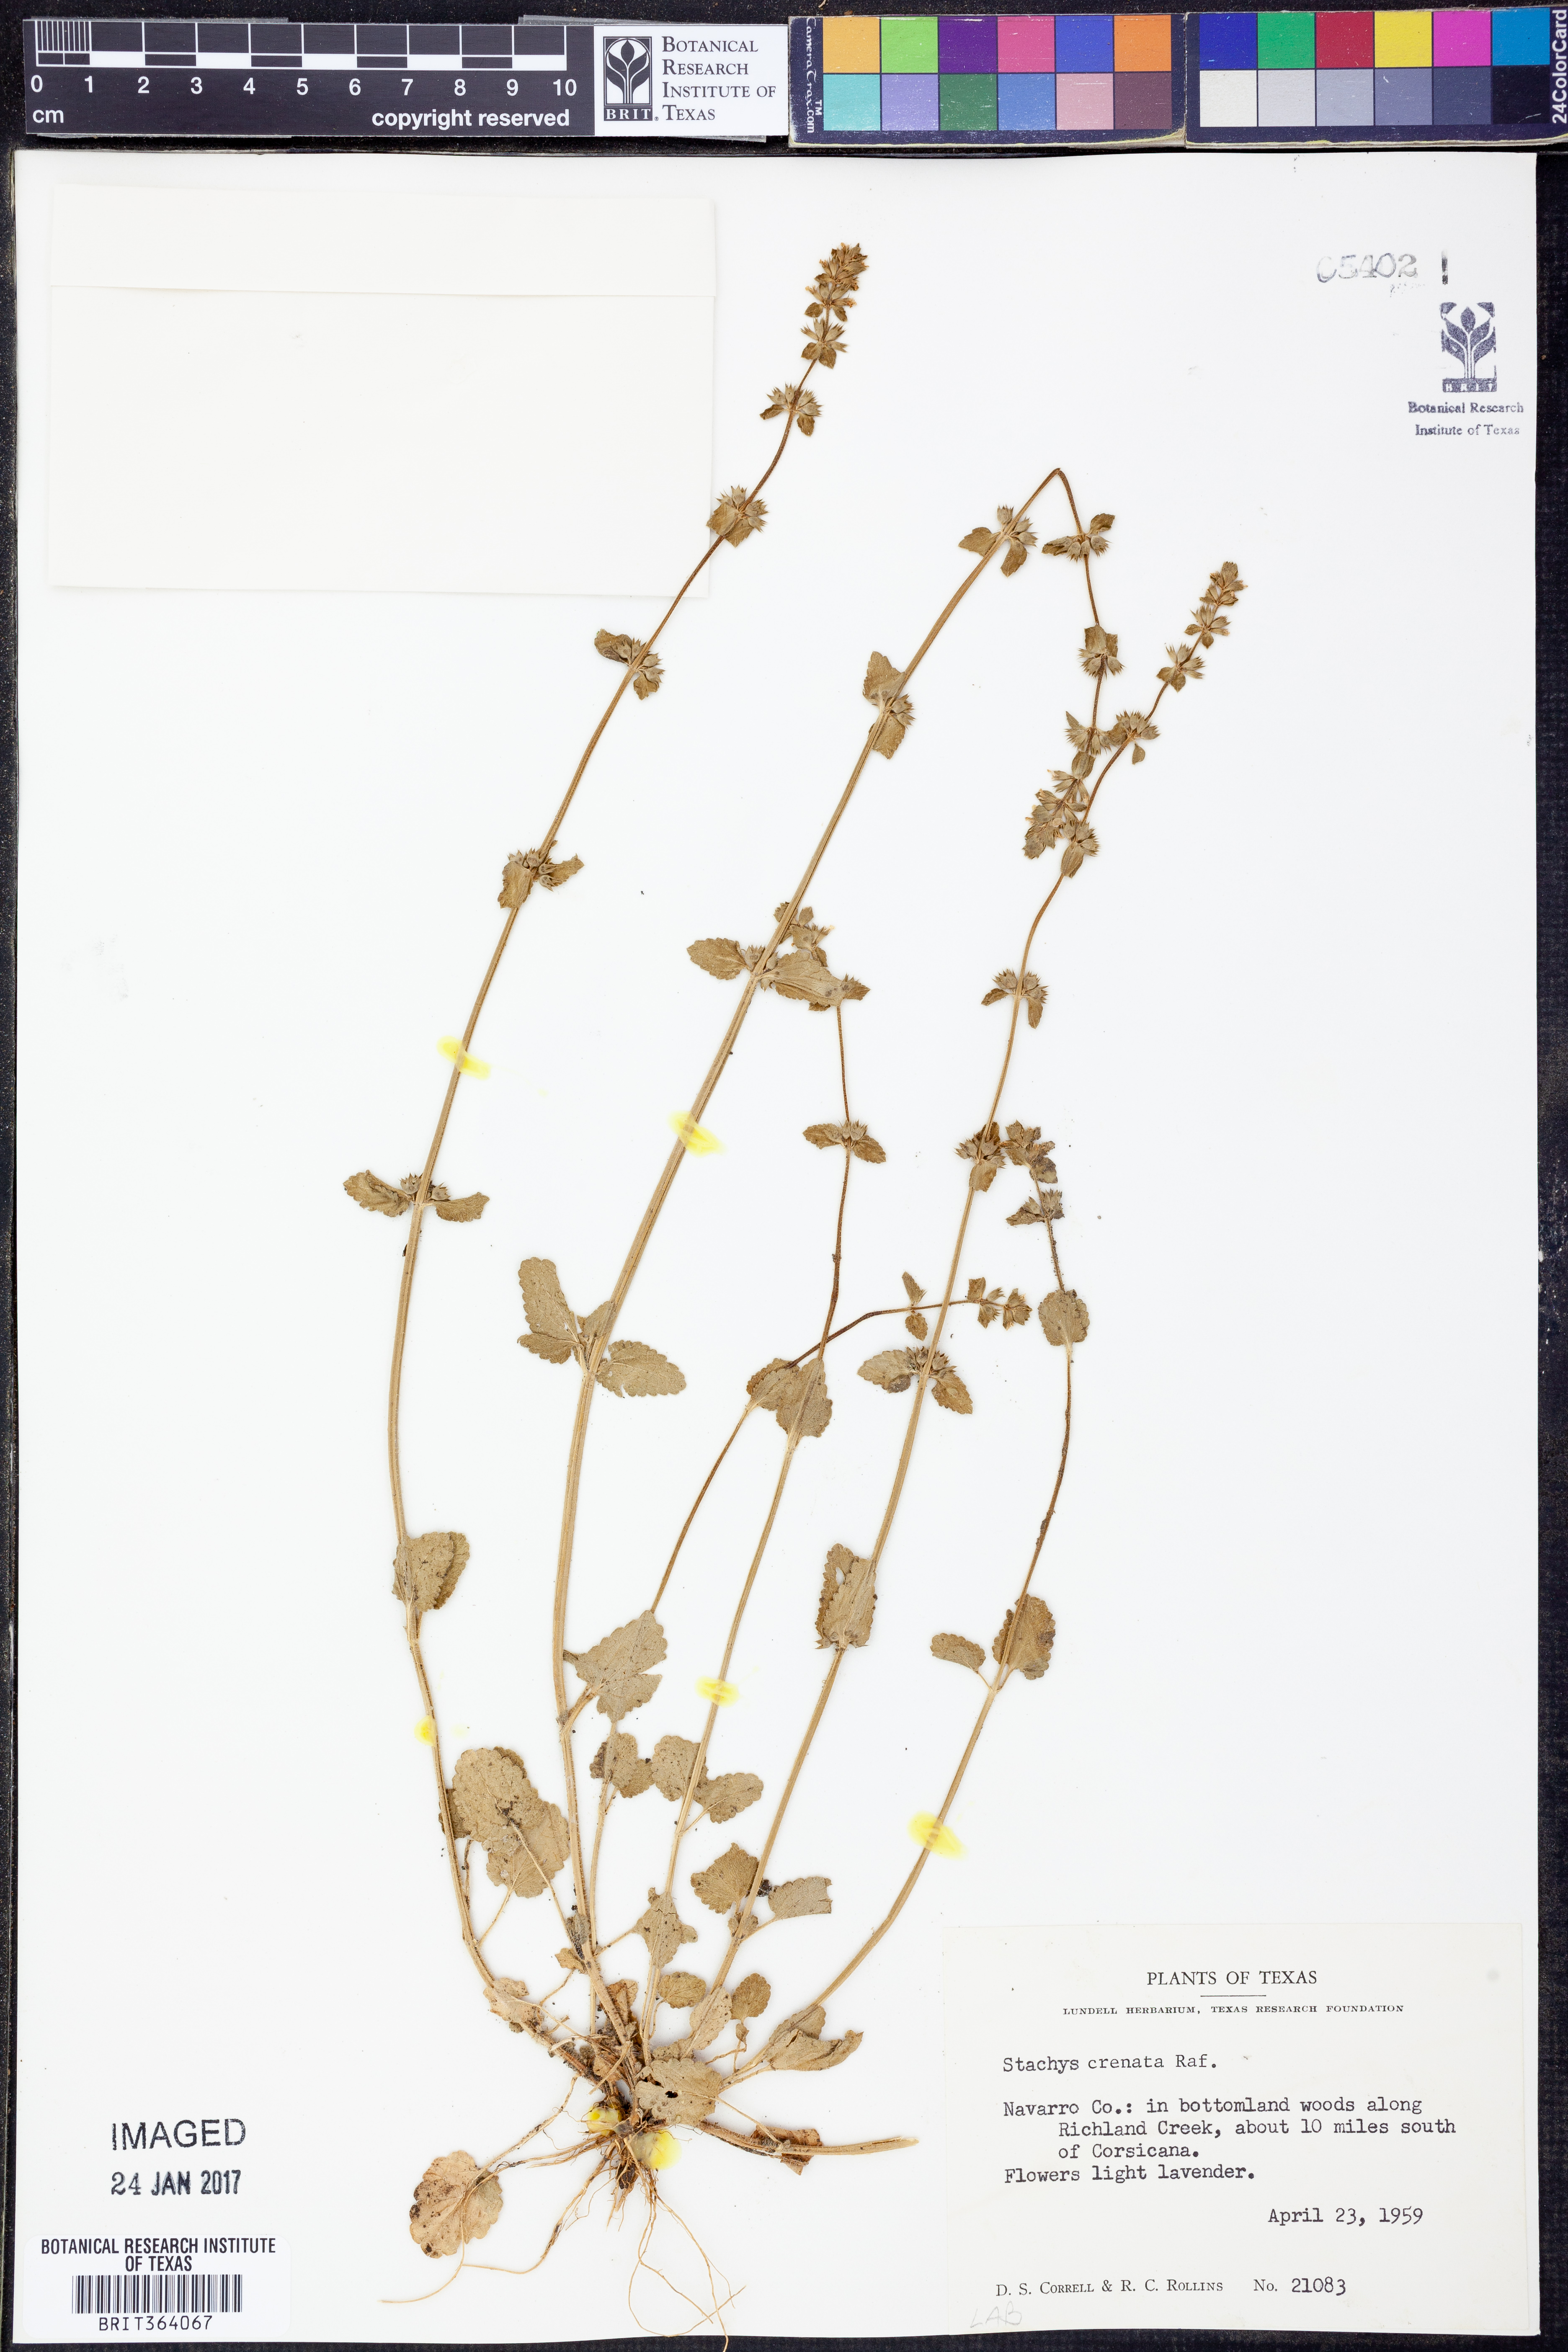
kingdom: Plantae
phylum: Tracheophyta
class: Magnoliopsida
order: Lamiales
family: Lamiaceae
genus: Stachys
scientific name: Stachys agraria
